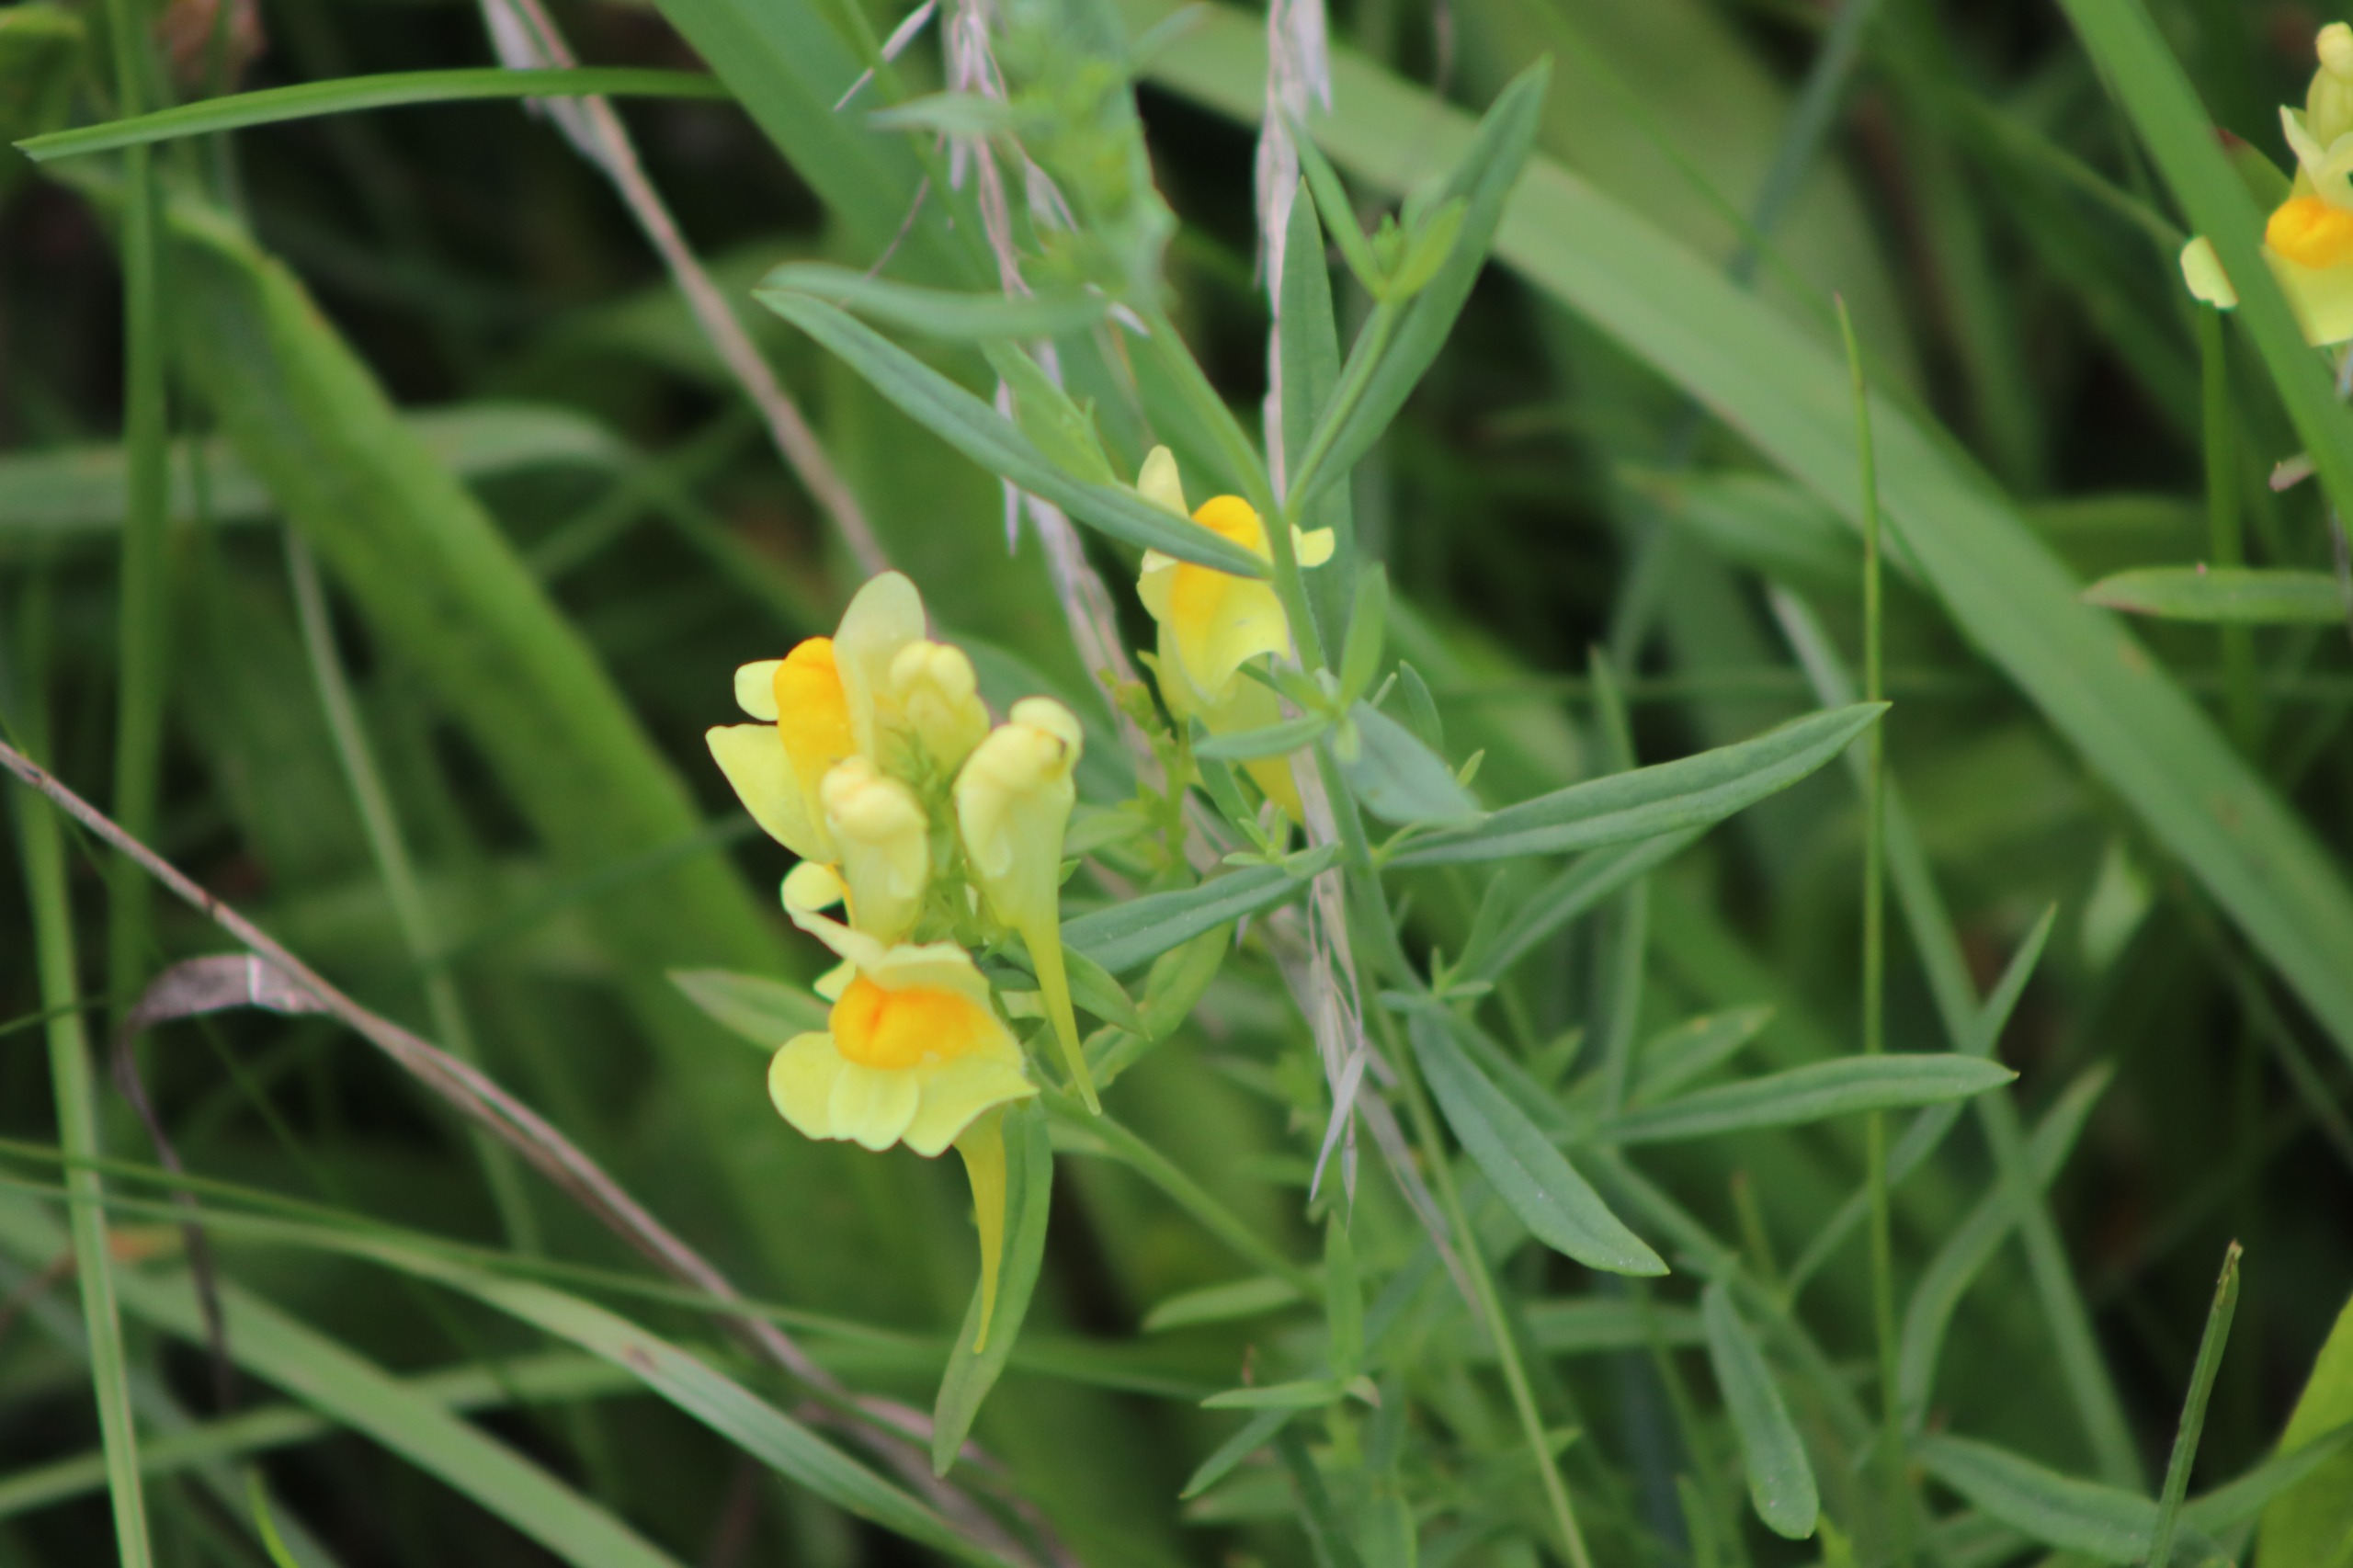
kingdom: Plantae
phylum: Tracheophyta
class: Magnoliopsida
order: Lamiales
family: Plantaginaceae
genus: Linaria
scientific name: Linaria vulgaris
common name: Almindelig torskemund
